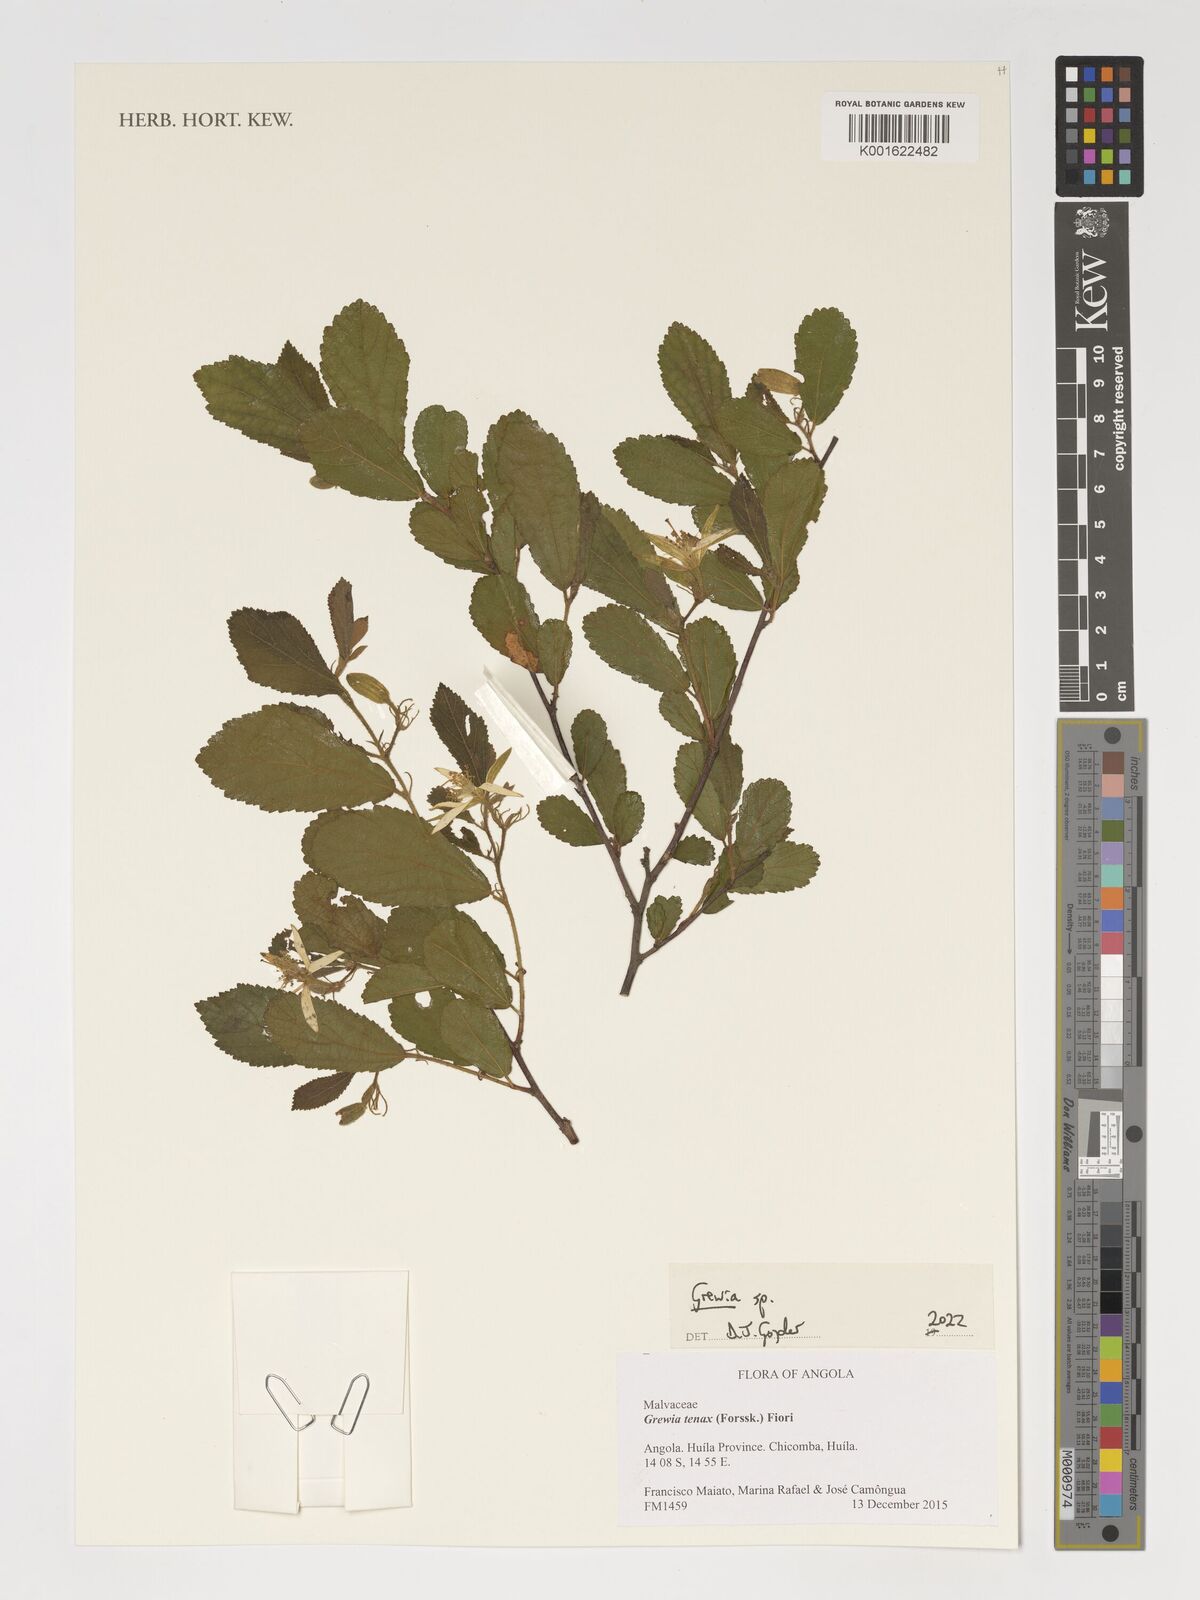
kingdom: Plantae
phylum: Tracheophyta
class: Magnoliopsida
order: Malvales
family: Malvaceae
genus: Grewia
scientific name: Grewia
